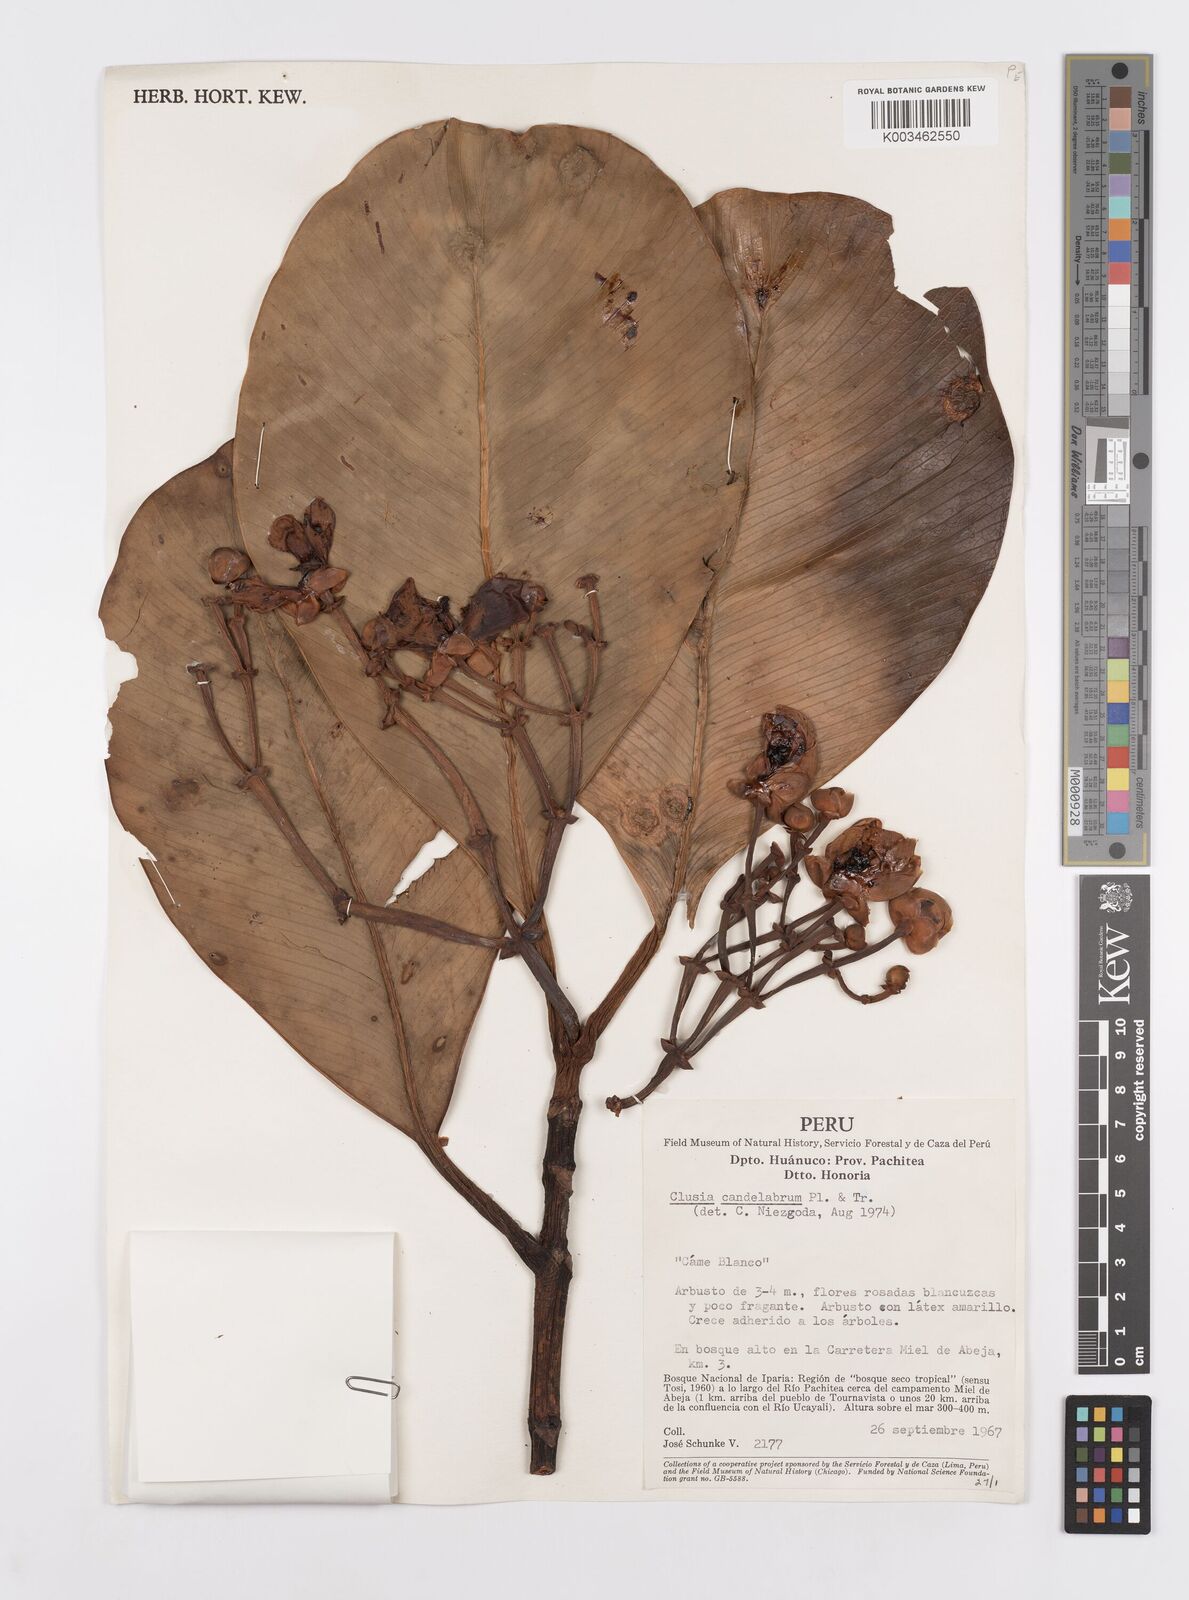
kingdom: Plantae
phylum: Tracheophyta
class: Magnoliopsida
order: Malpighiales
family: Clusiaceae
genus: Clusia
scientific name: Clusia candelabrum
